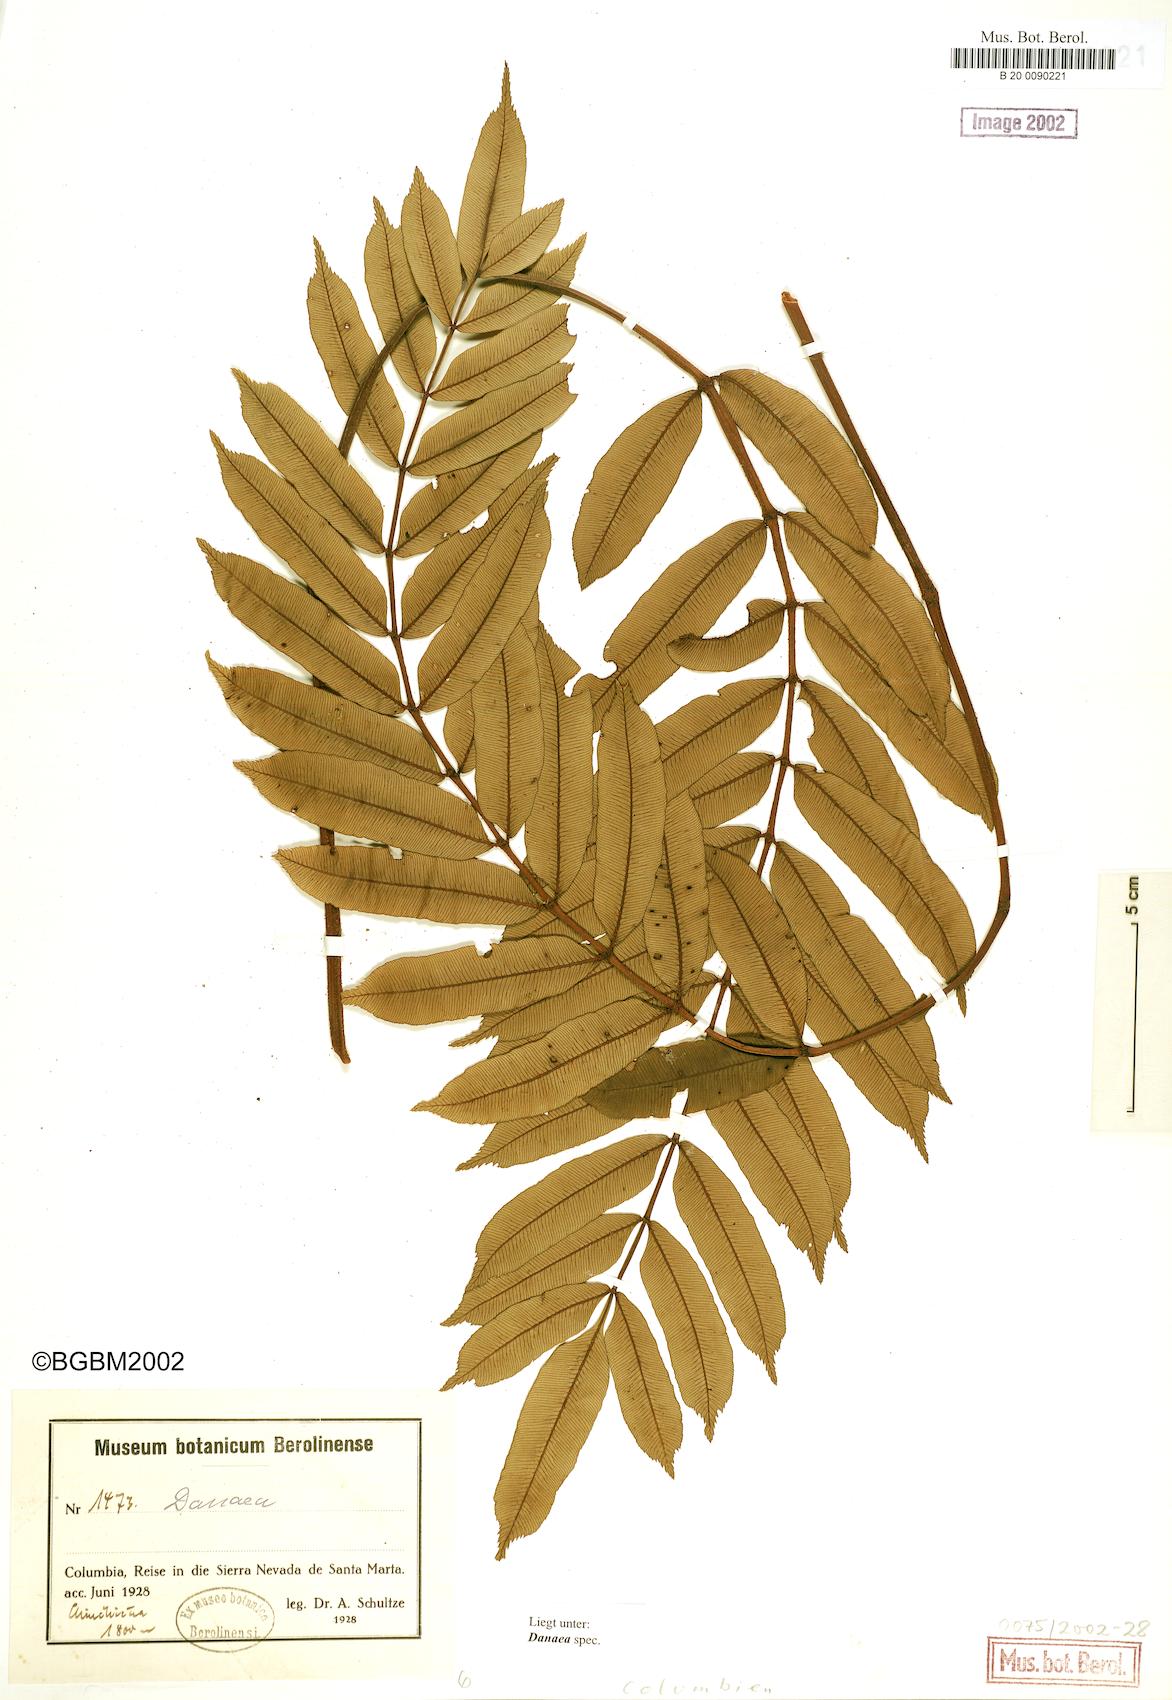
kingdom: Plantae
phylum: Tracheophyta
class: Polypodiopsida
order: Marattiales
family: Marattiaceae
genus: Danaea
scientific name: Danaea
